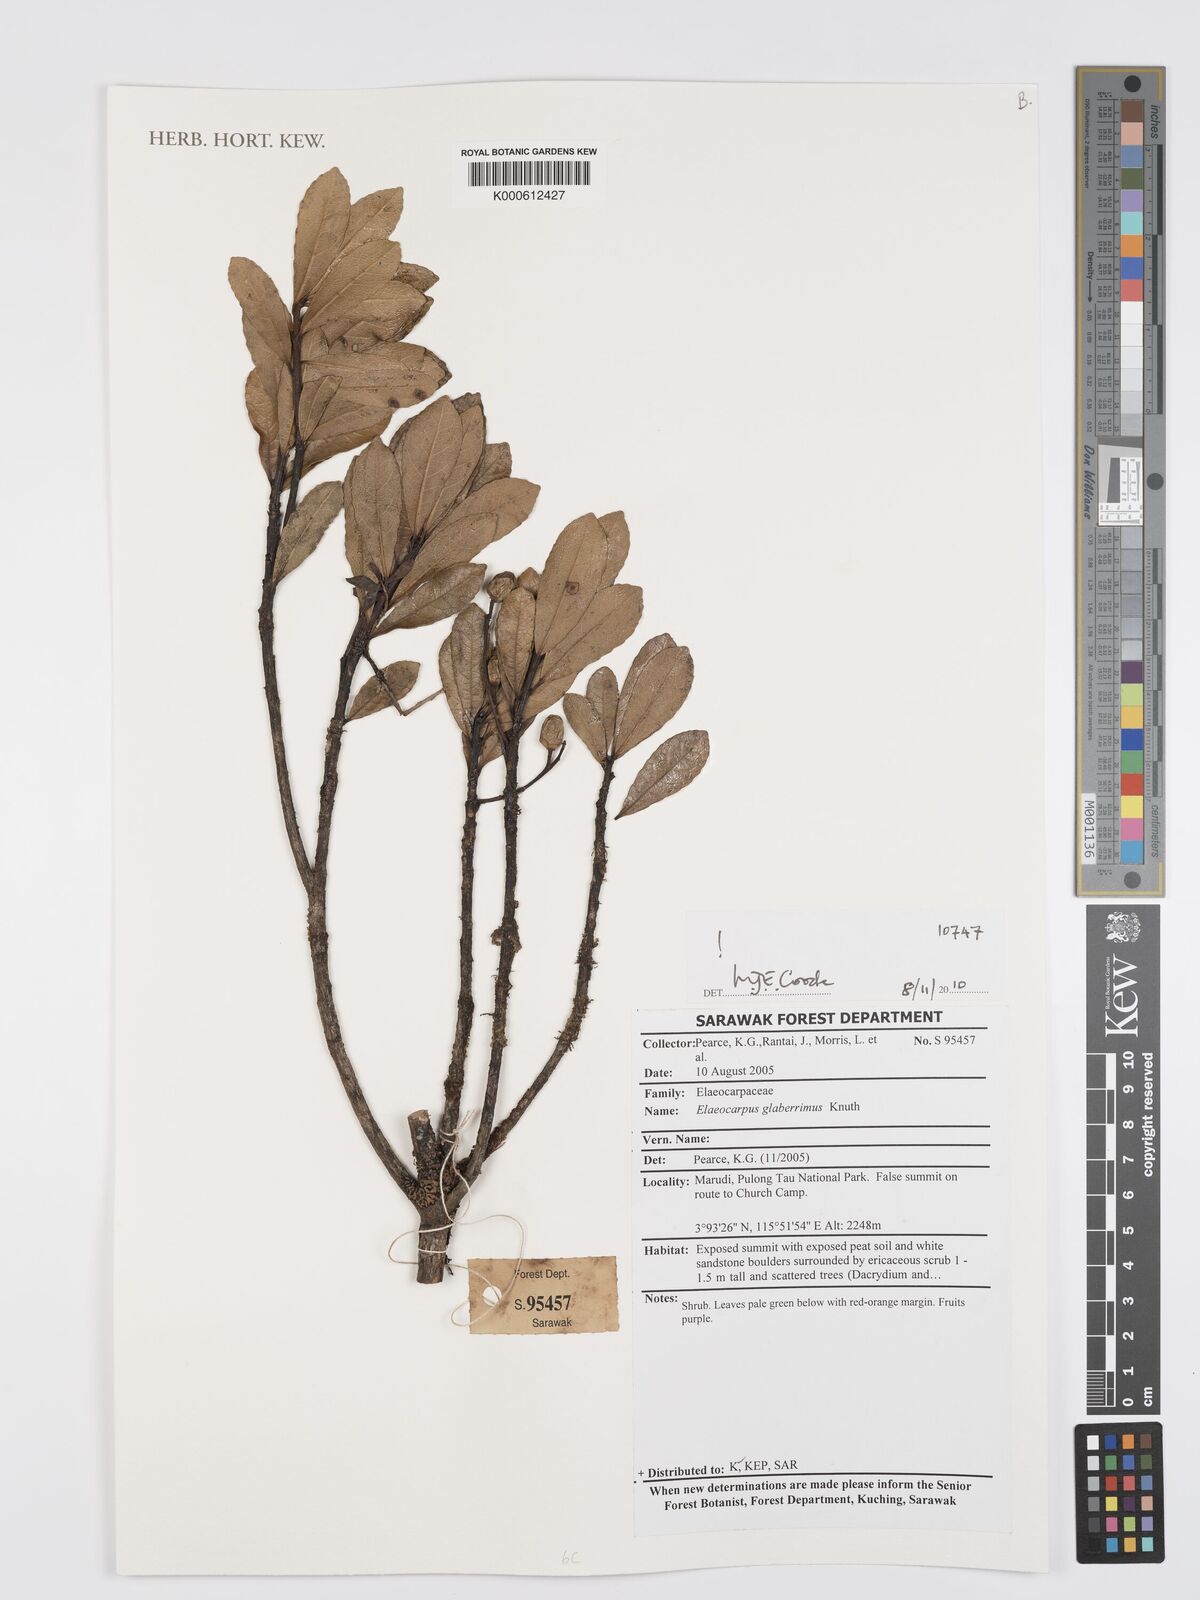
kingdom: Plantae
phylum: Tracheophyta
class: Magnoliopsida
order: Oxalidales
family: Elaeocarpaceae
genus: Elaeocarpus
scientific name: Elaeocarpus glaberrimus
